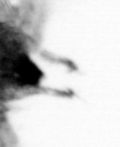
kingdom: Animalia
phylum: Arthropoda
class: Copepoda
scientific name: Copepoda
